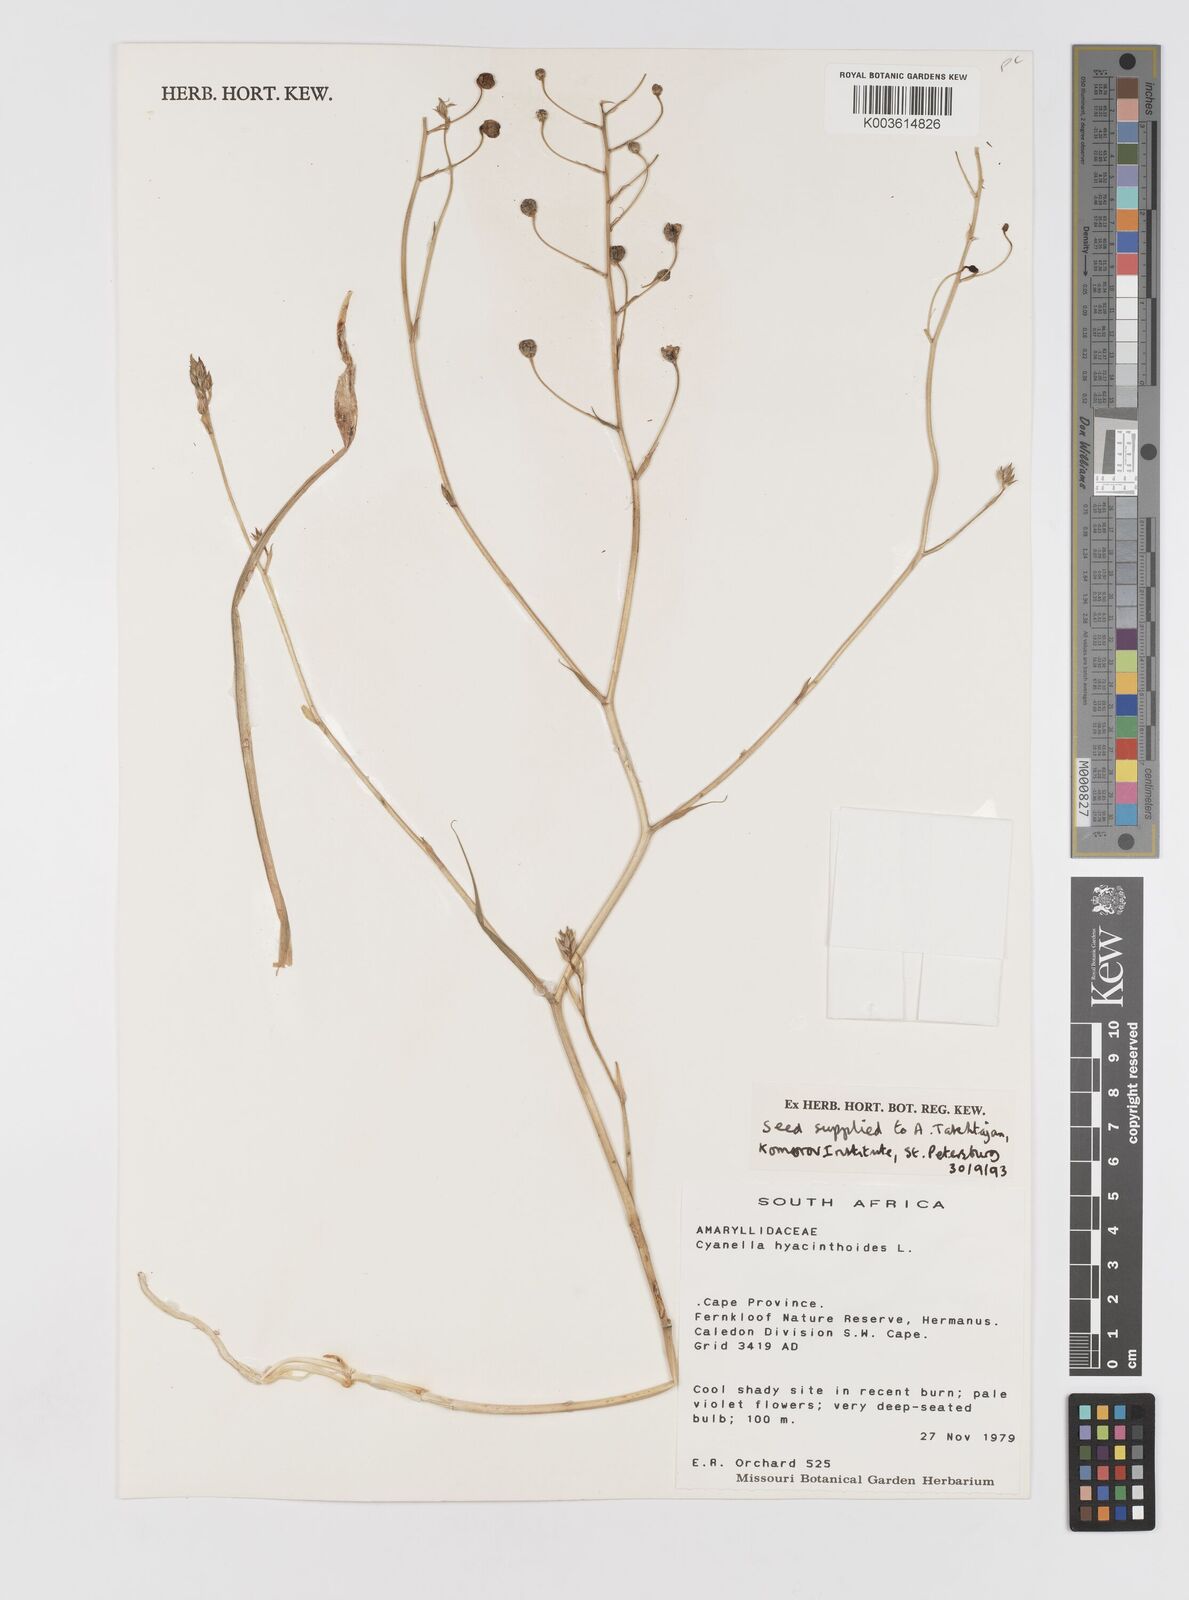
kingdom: Plantae
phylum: Tracheophyta
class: Liliopsida
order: Asparagales
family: Tecophilaeaceae
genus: Cyanella
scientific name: Cyanella hyacinthoides
